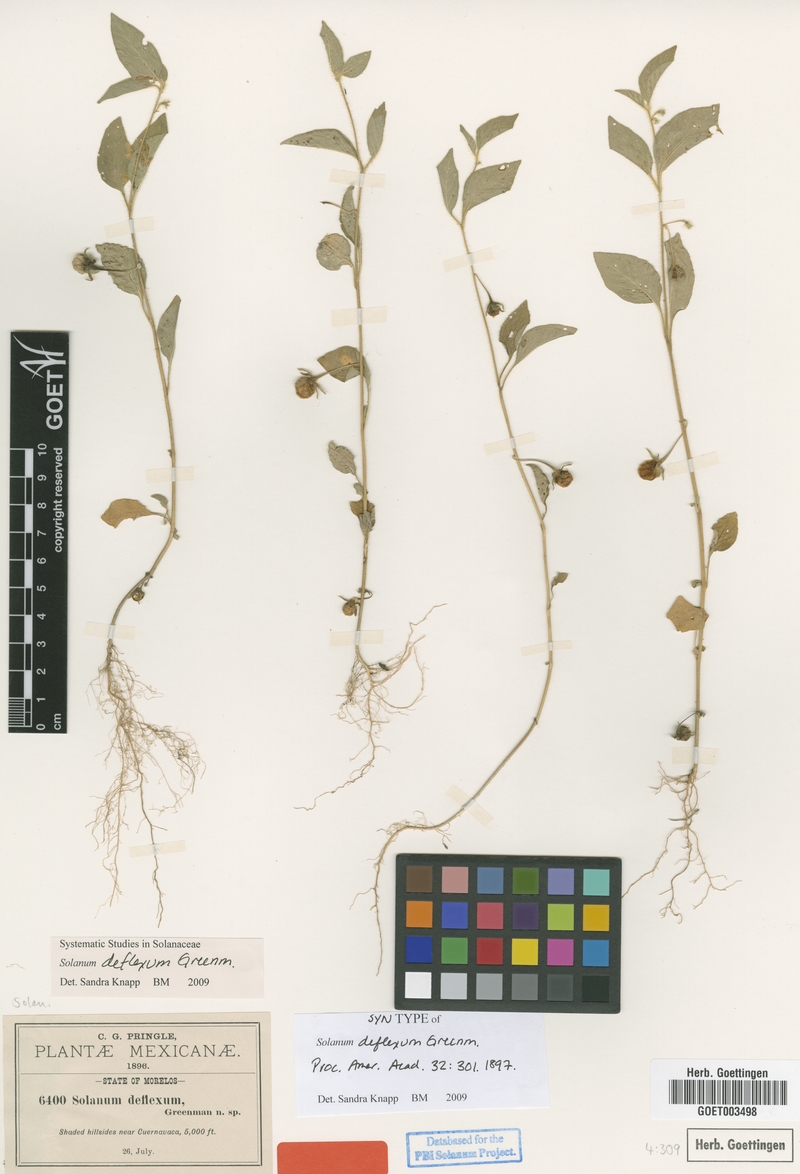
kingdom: Plantae
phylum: Tracheophyta
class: Magnoliopsida
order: Solanales
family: Solanaceae
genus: Solanum
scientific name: Solanum deflexum
